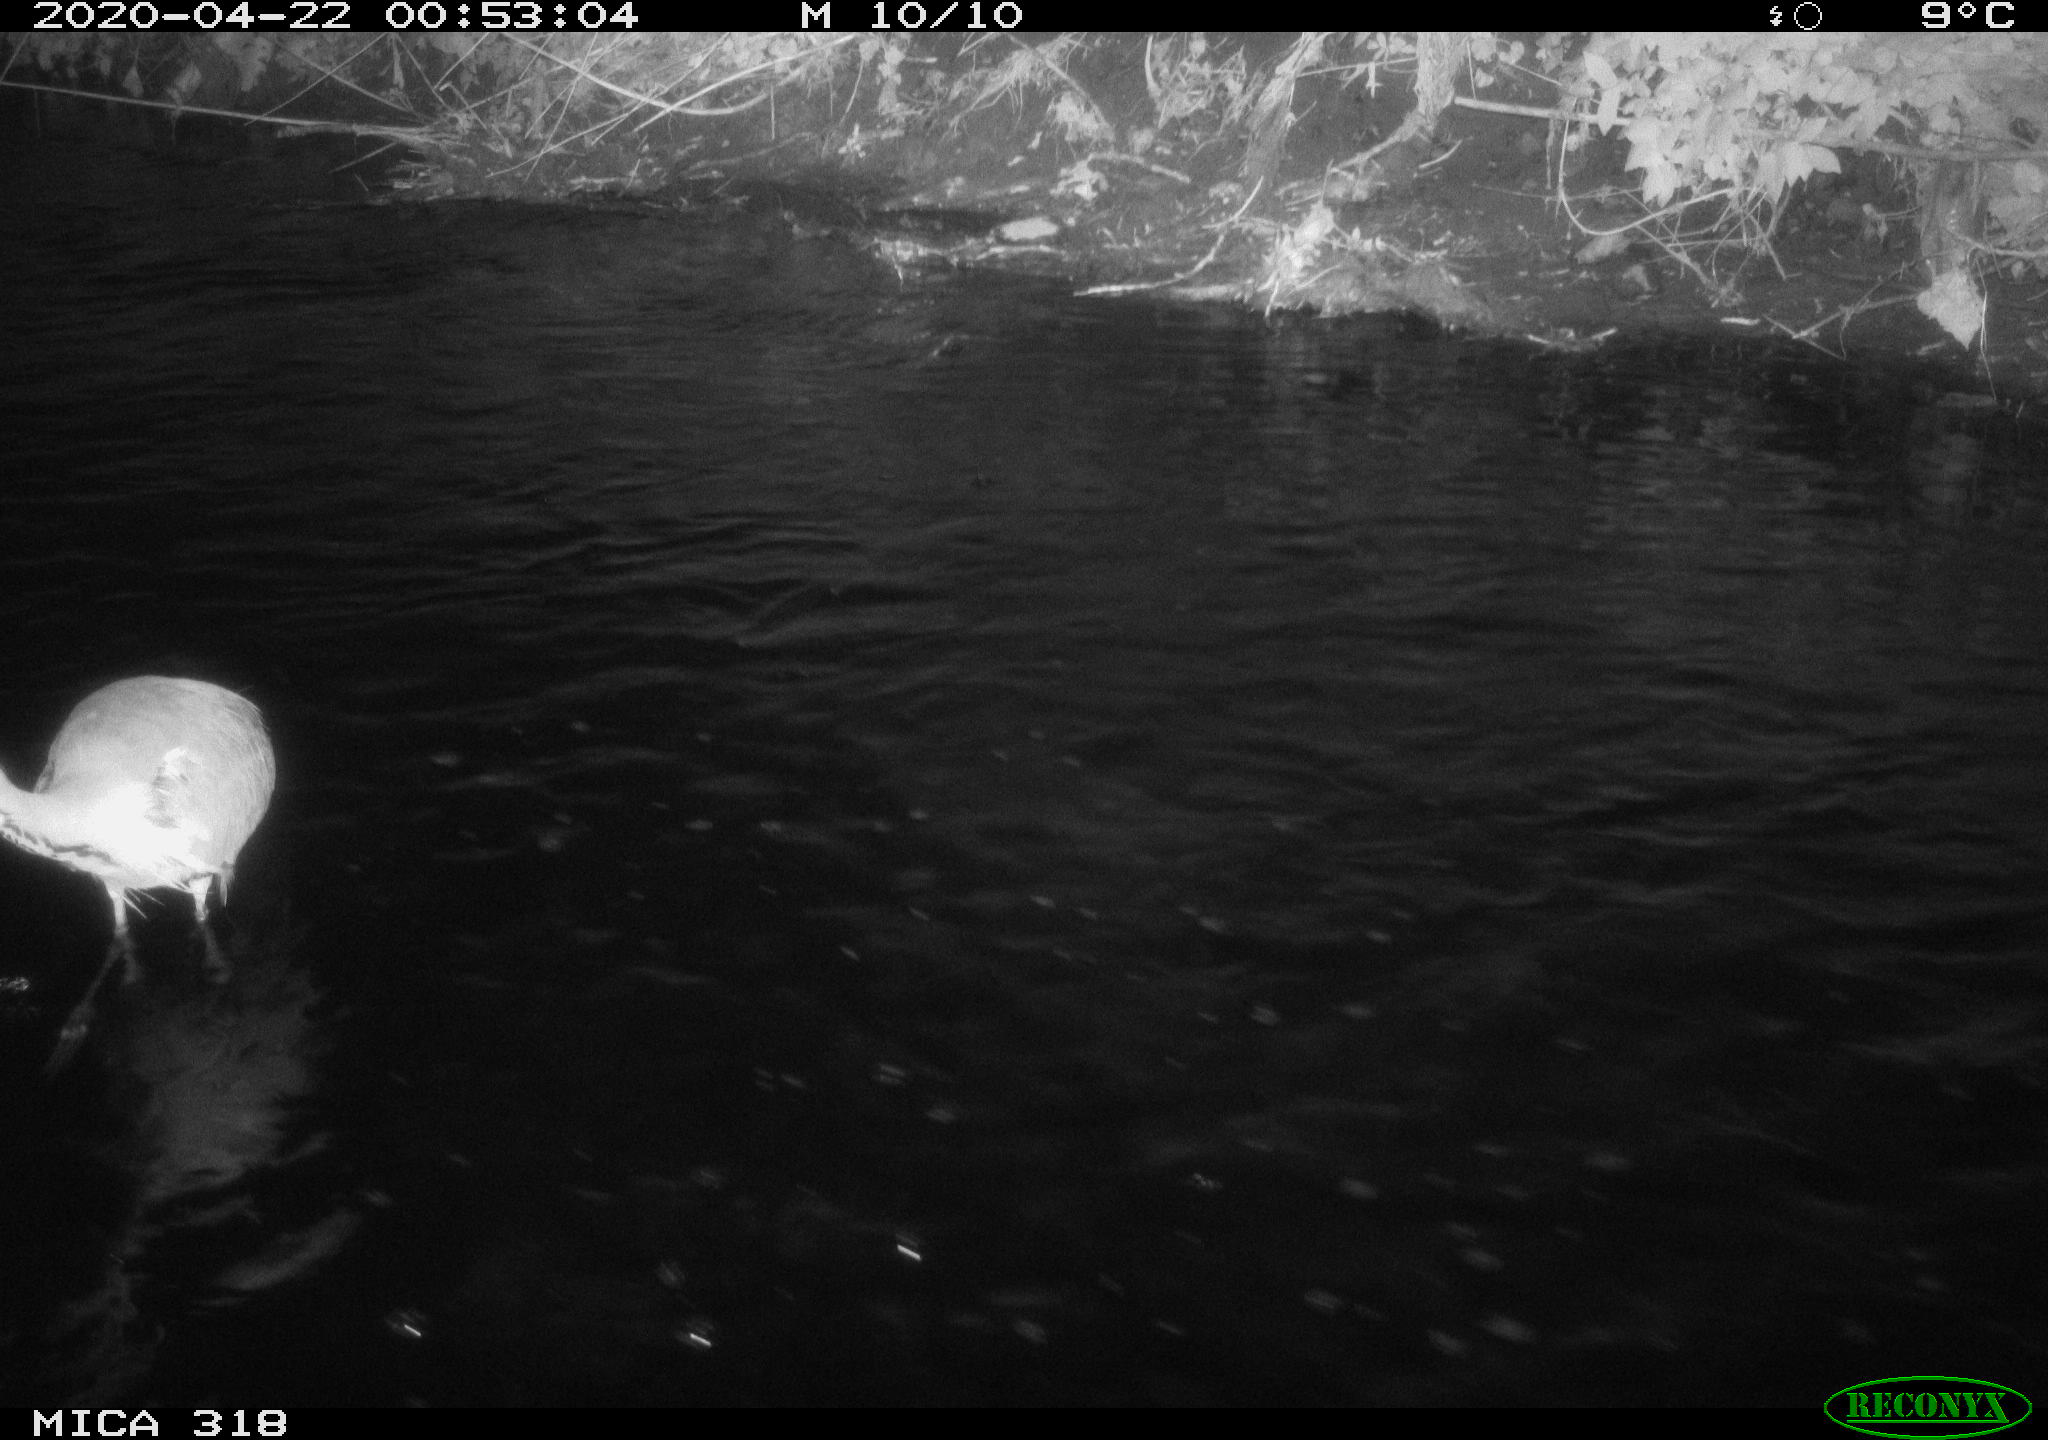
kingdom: Animalia
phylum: Chordata
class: Aves
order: Pelecaniformes
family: Ardeidae
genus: Ardea
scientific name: Ardea cinerea
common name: Grey heron
